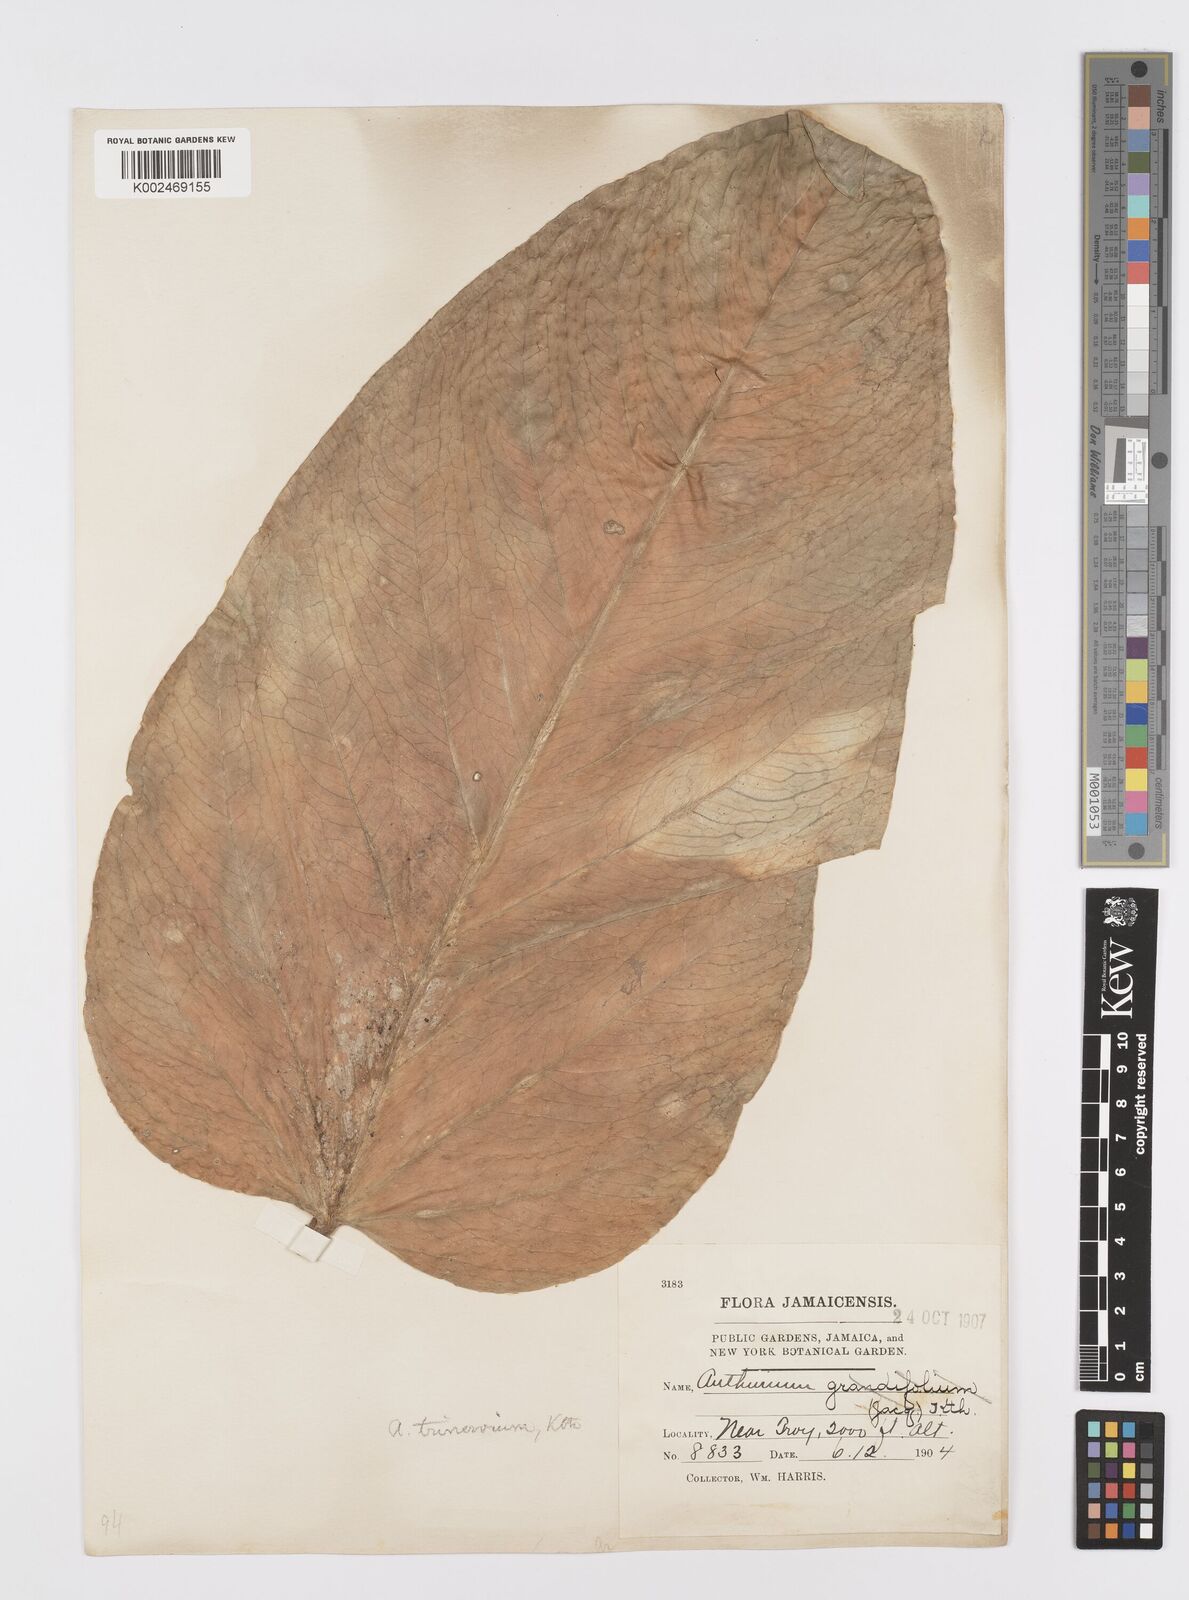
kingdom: Plantae
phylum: Tracheophyta
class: Liliopsida
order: Alismatales
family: Araceae
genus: Anthurium
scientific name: Anthurium grandifolium
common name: Monkey tail
